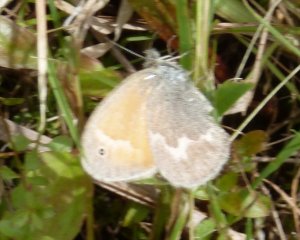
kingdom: Animalia
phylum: Arthropoda
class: Insecta
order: Lepidoptera
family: Nymphalidae
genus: Coenonympha
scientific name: Coenonympha tullia
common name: Large Heath
